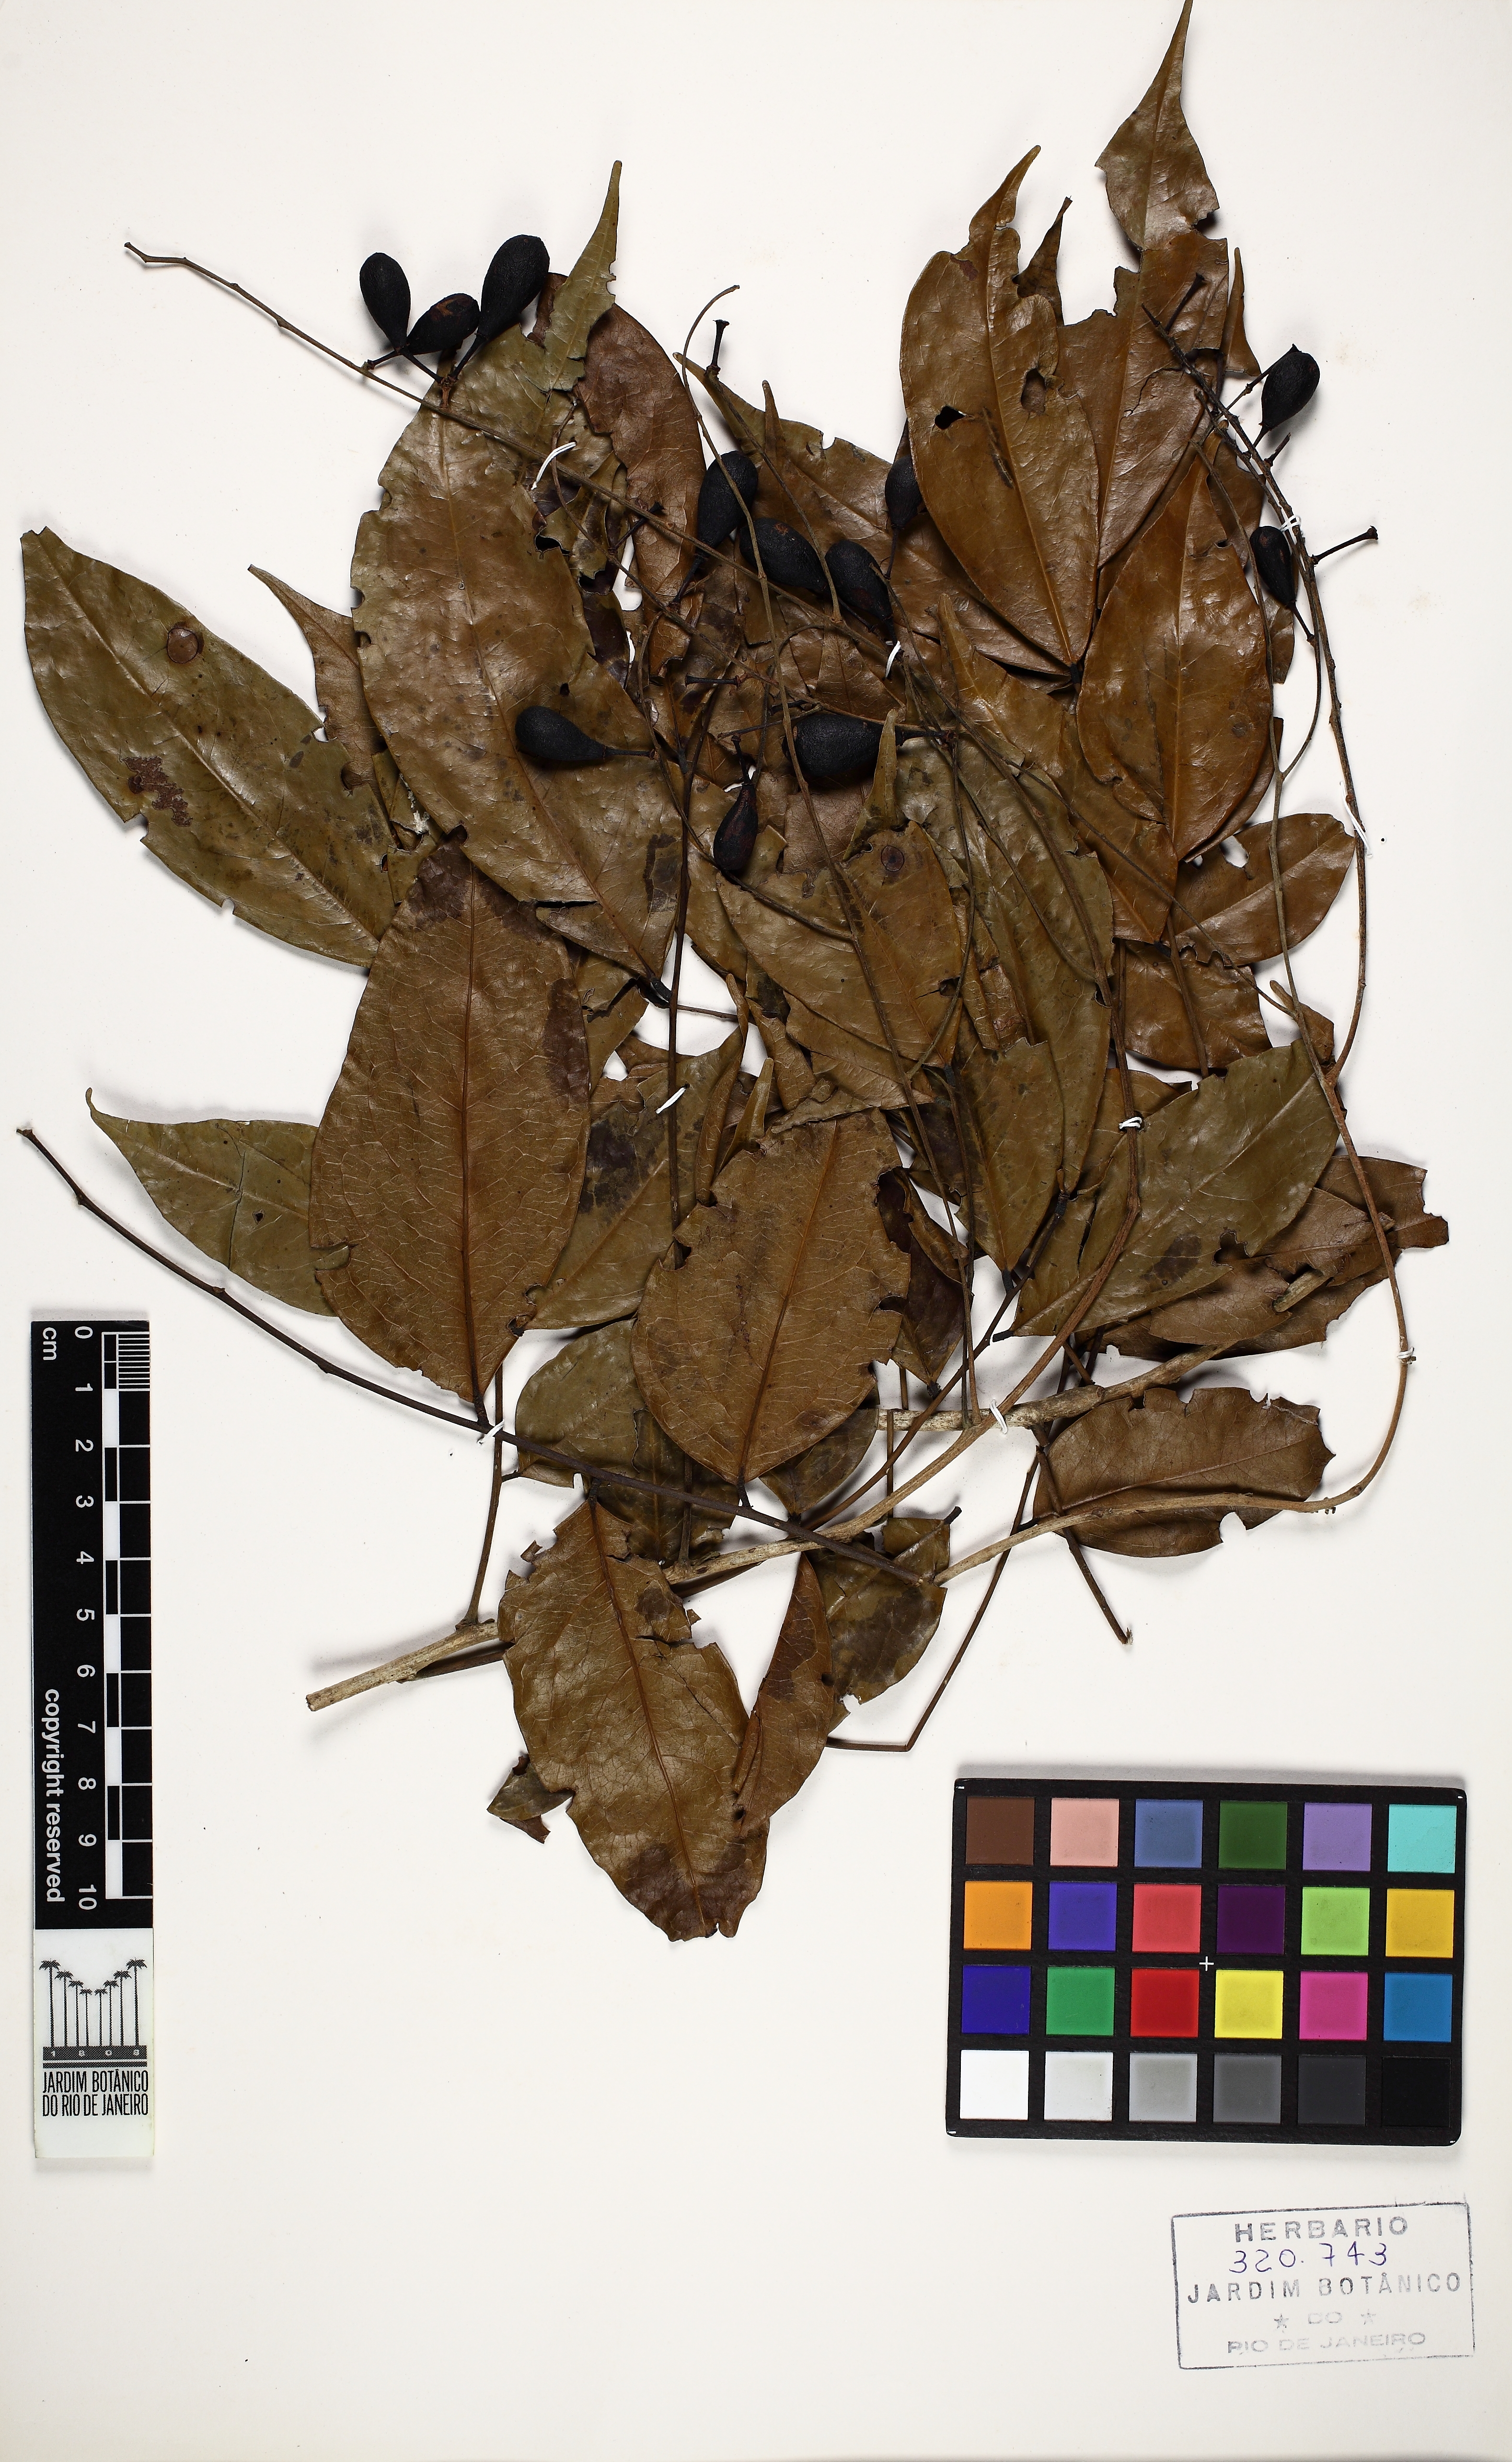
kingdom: Plantae
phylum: Tracheophyta
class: Magnoliopsida
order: Picramniales
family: Picramniaceae
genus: Picramnia
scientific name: Picramnia glazioviana
